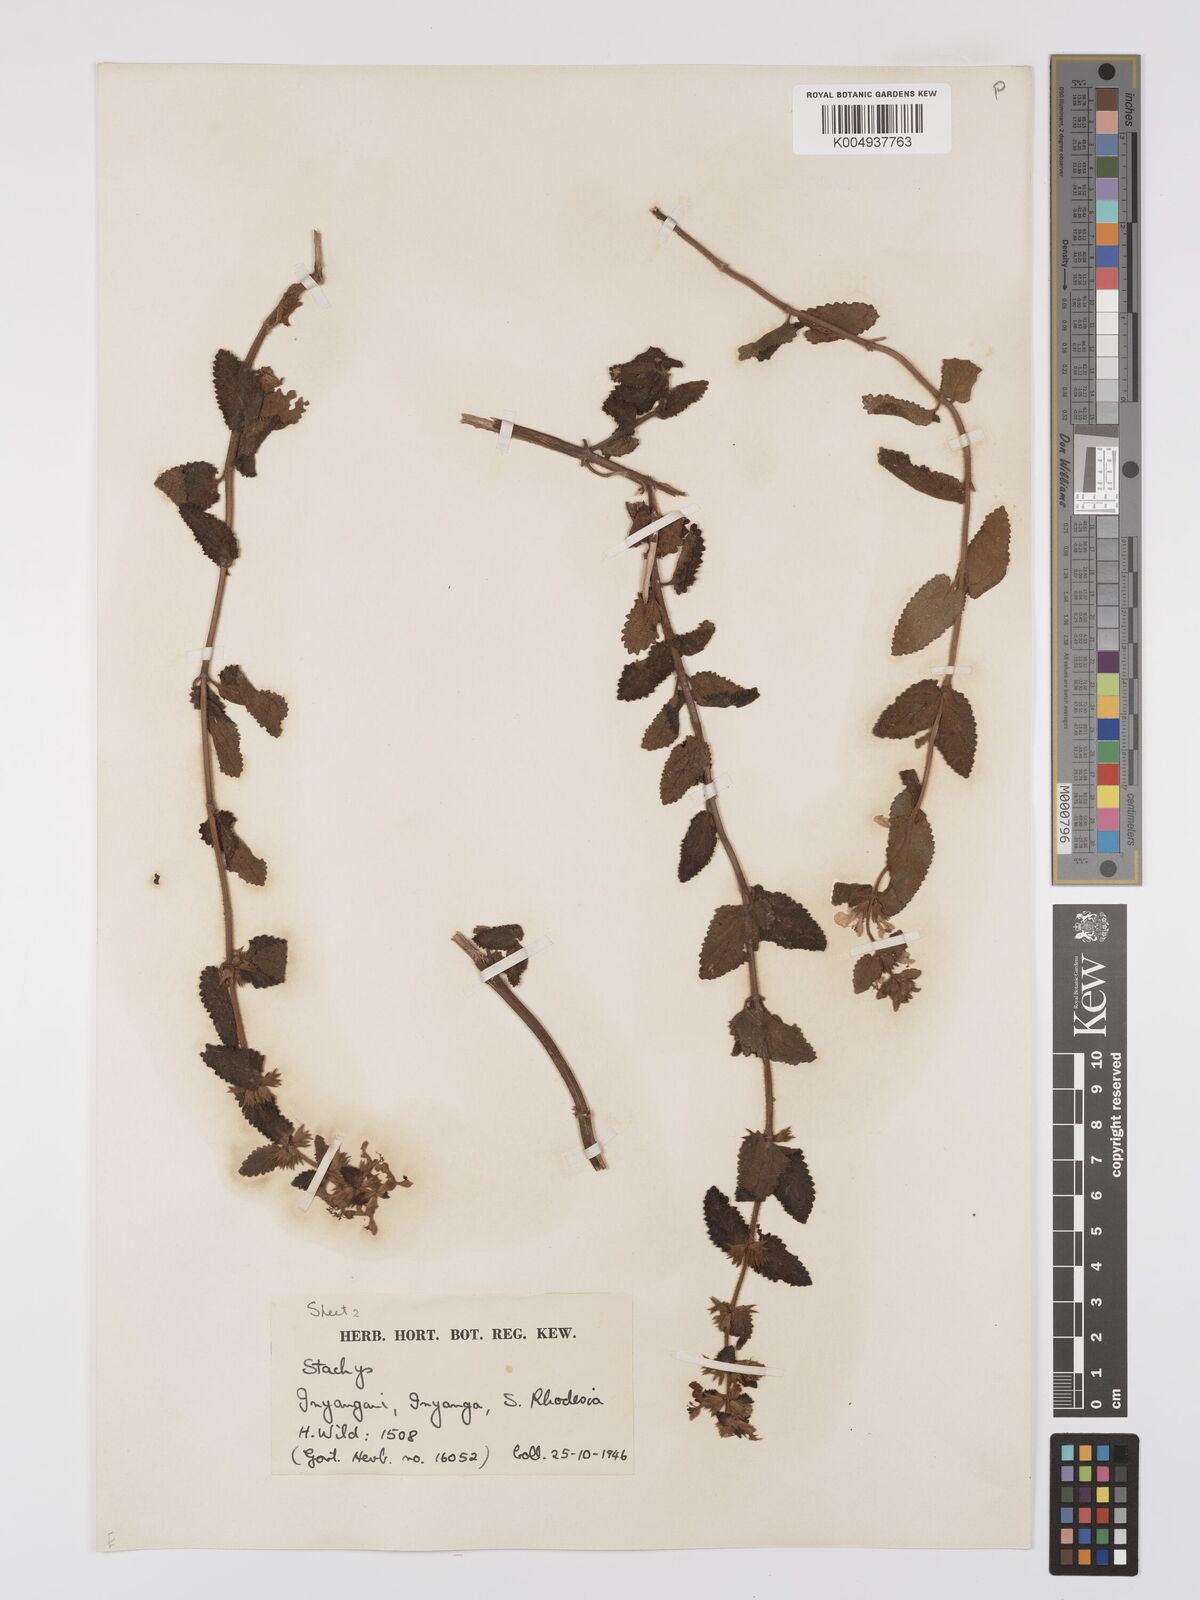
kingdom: Plantae
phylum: Tracheophyta
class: Magnoliopsida
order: Lamiales
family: Lamiaceae
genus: Stachys
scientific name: Stachys aethiopica
